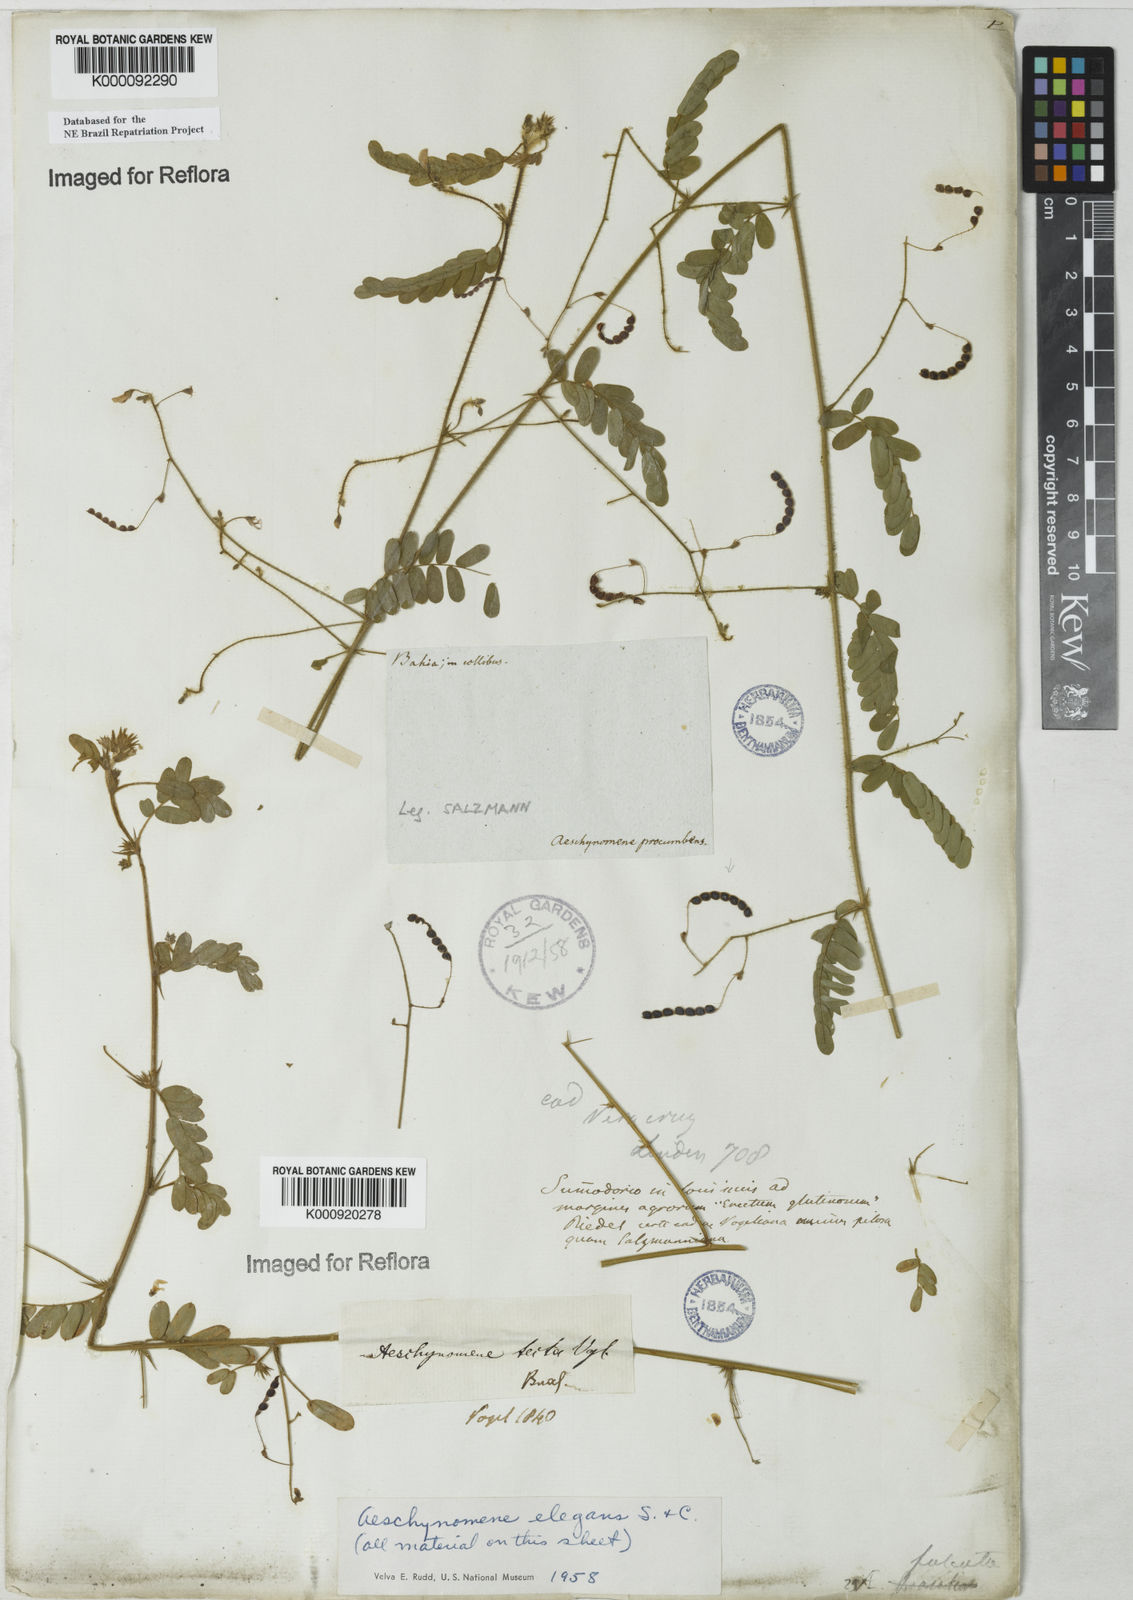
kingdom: Plantae
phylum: Tracheophyta
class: Magnoliopsida
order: Fabales
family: Fabaceae
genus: Ctenodon
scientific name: Ctenodon elegans
